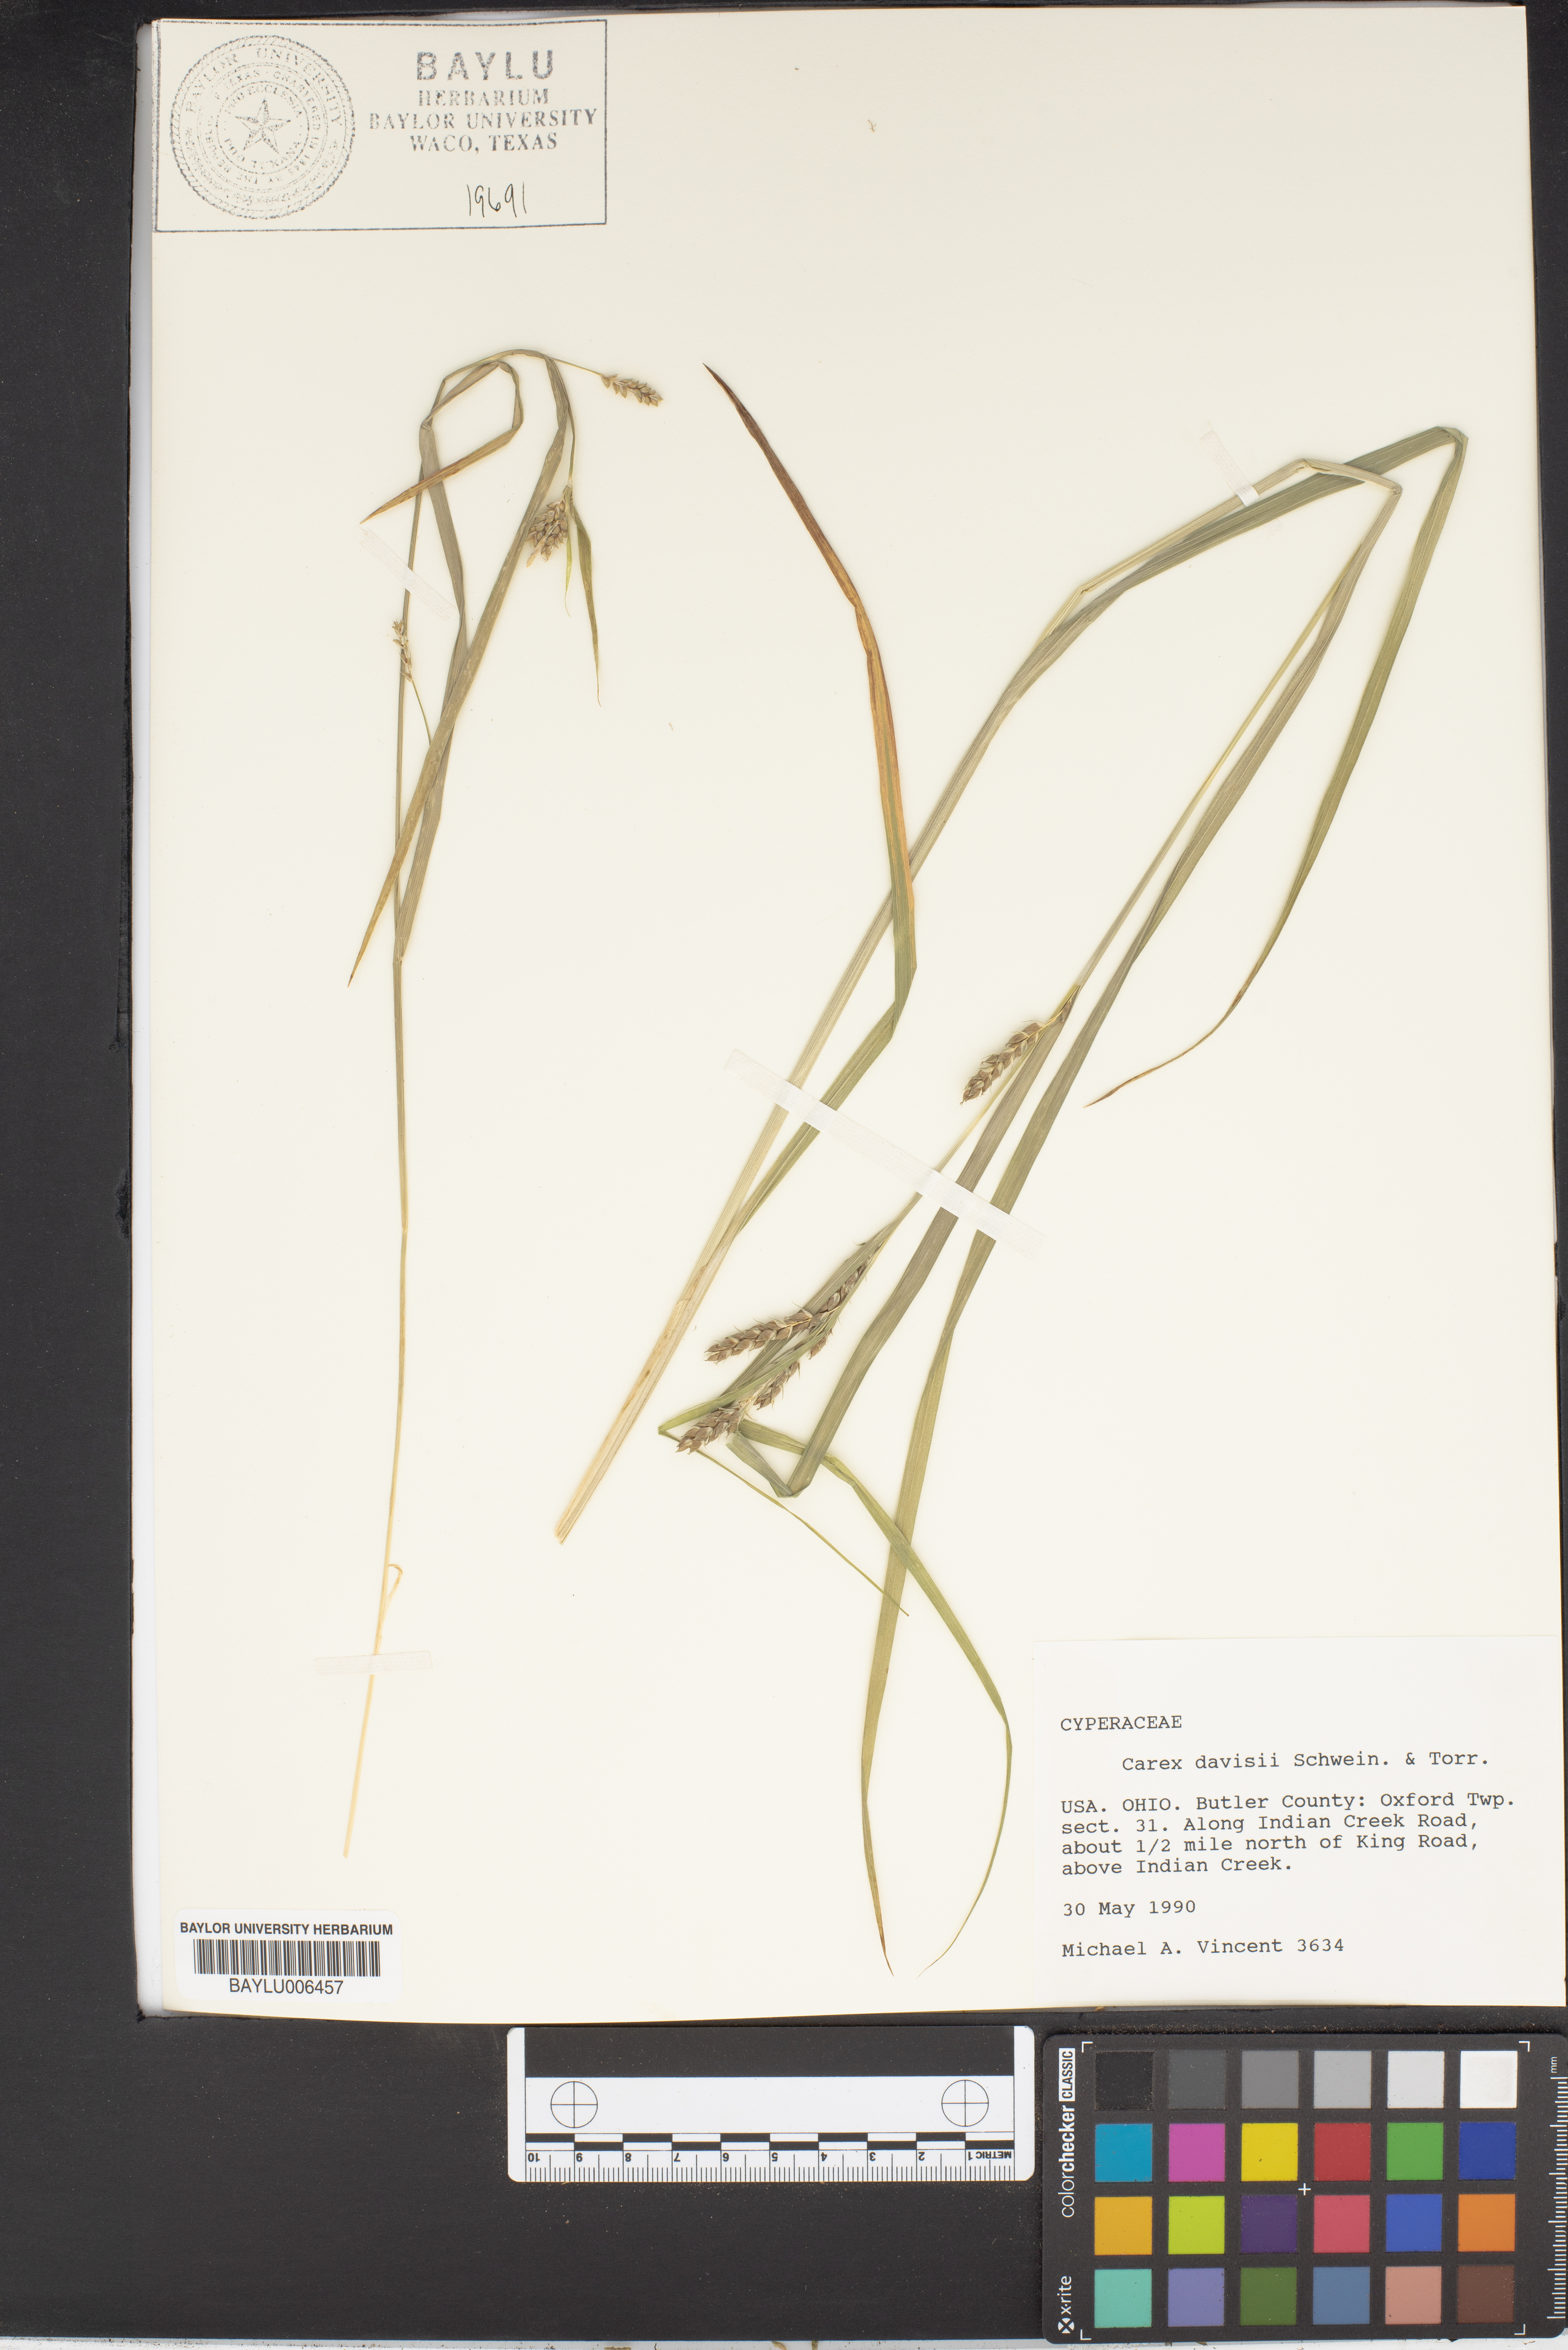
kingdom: Plantae
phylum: Tracheophyta
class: Liliopsida
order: Poales
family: Cyperaceae
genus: Carex
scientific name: Carex davisii
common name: Davis' sedge
